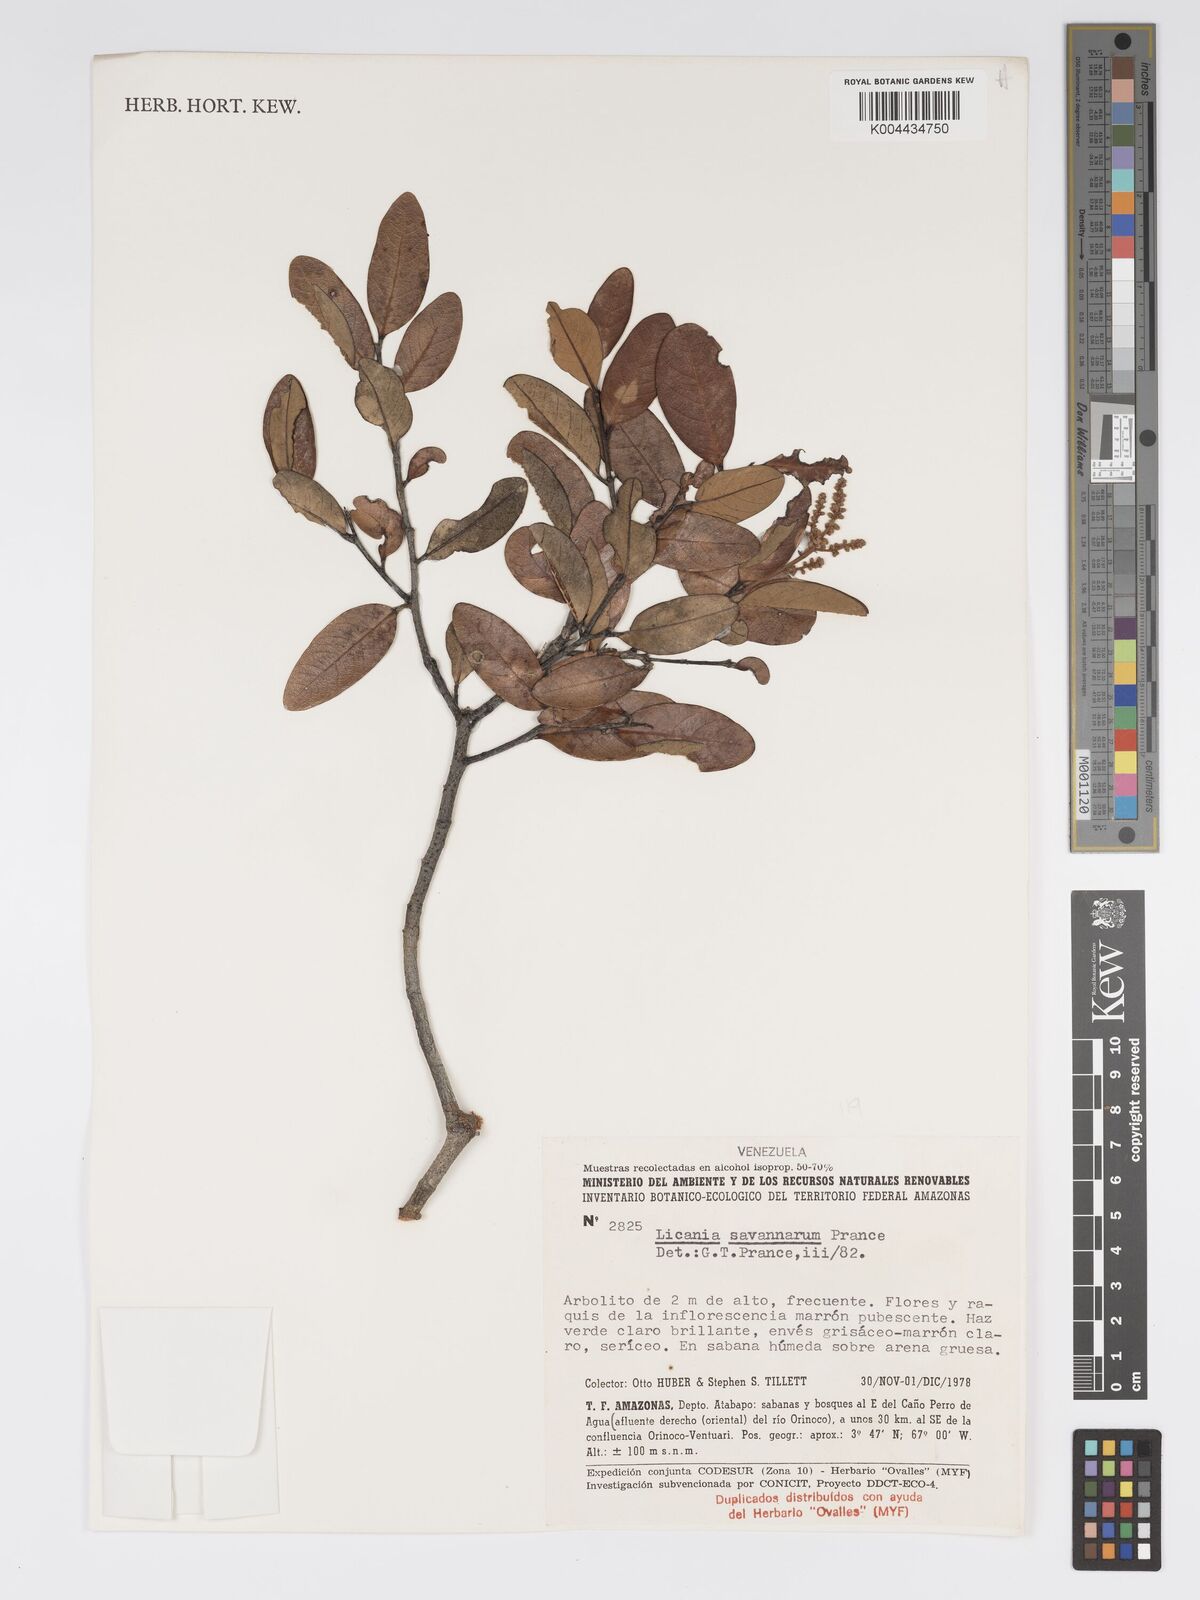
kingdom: Plantae
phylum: Tracheophyta
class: Magnoliopsida
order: Malpighiales
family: Chrysobalanaceae
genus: Licania
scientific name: Licania savannarum
